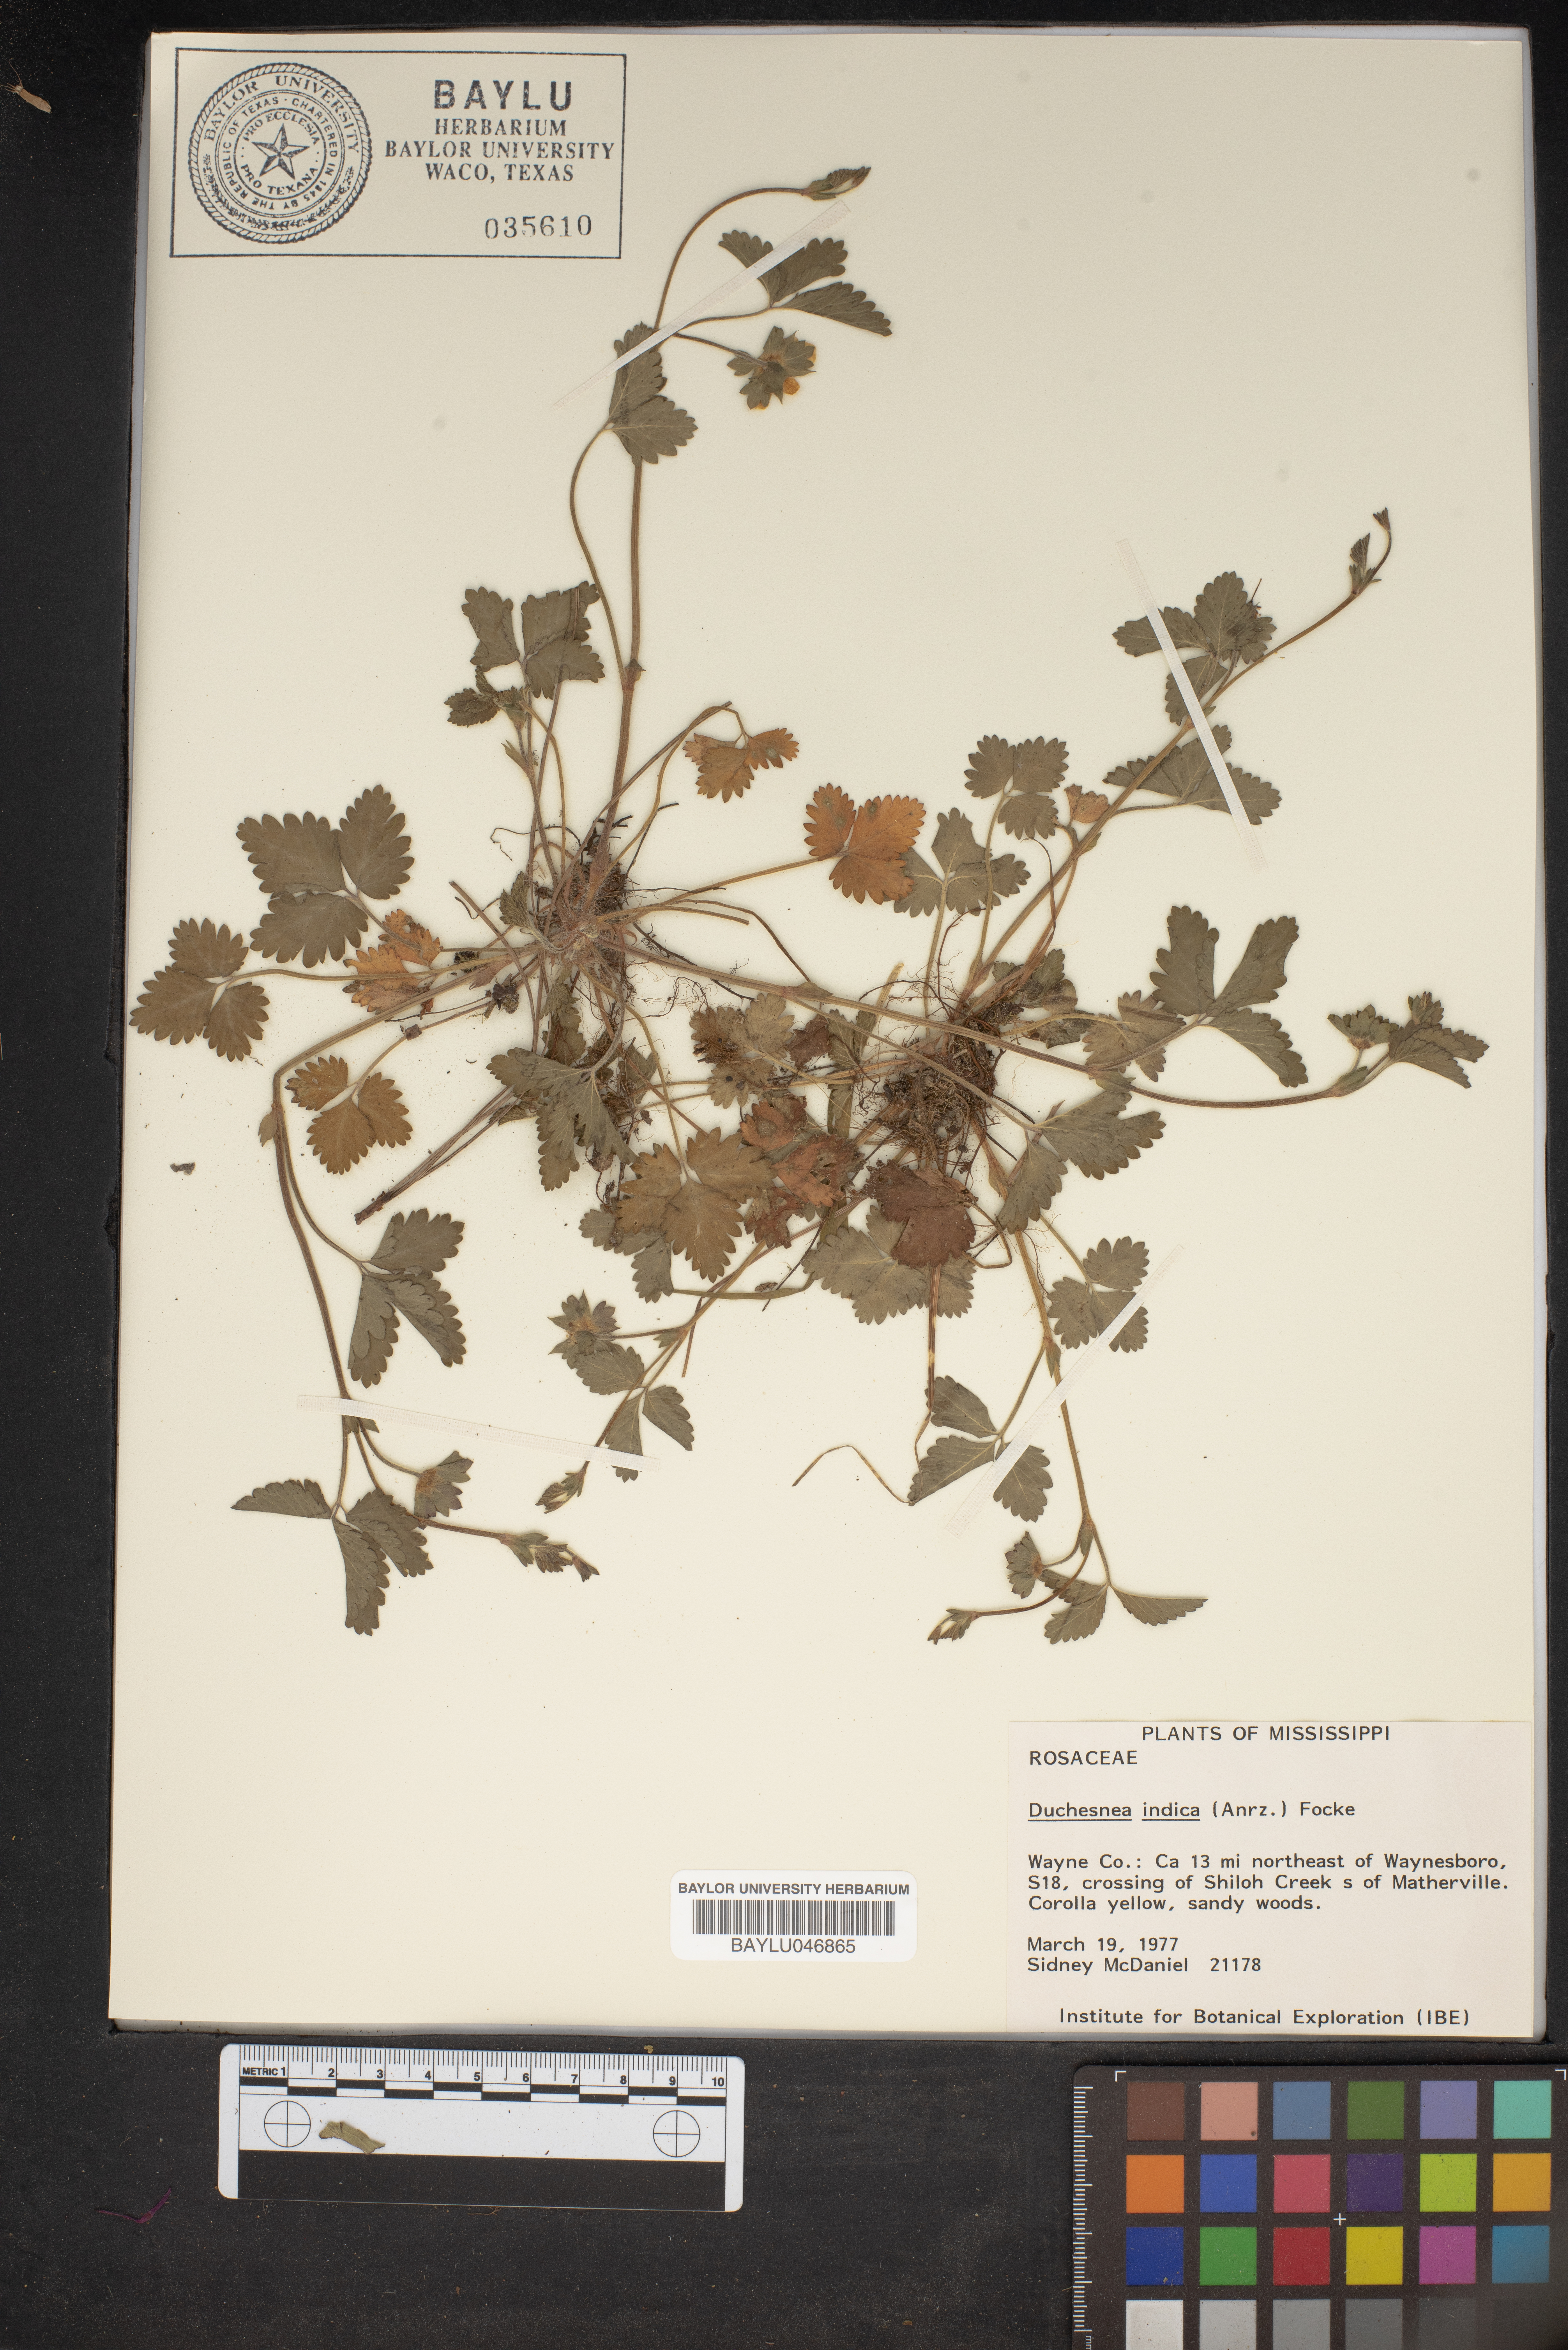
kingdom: Plantae
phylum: Tracheophyta
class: Magnoliopsida
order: Rosales
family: Rosaceae
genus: Potentilla
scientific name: Potentilla indica
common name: Yellow-flowered strawberry
